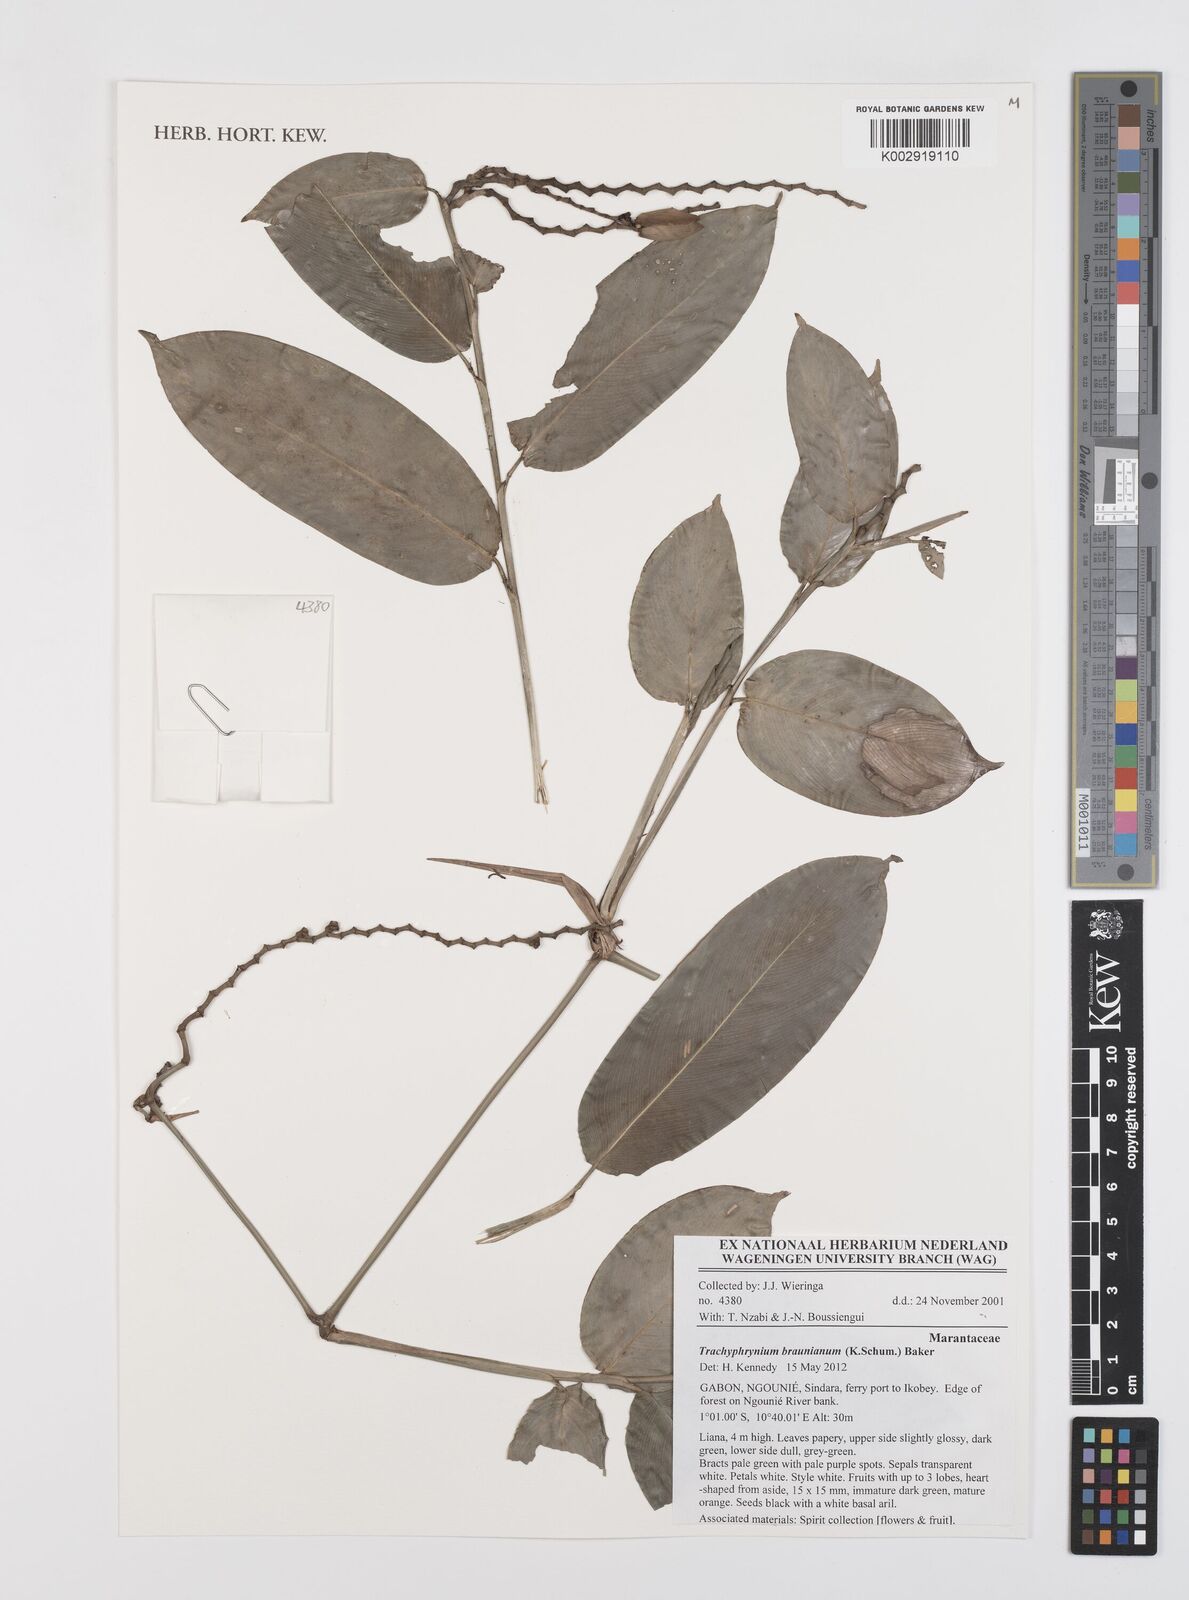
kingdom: Plantae
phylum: Tracheophyta
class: Liliopsida
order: Zingiberales
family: Marantaceae
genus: Trachyphrynium
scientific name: Trachyphrynium braunianum
